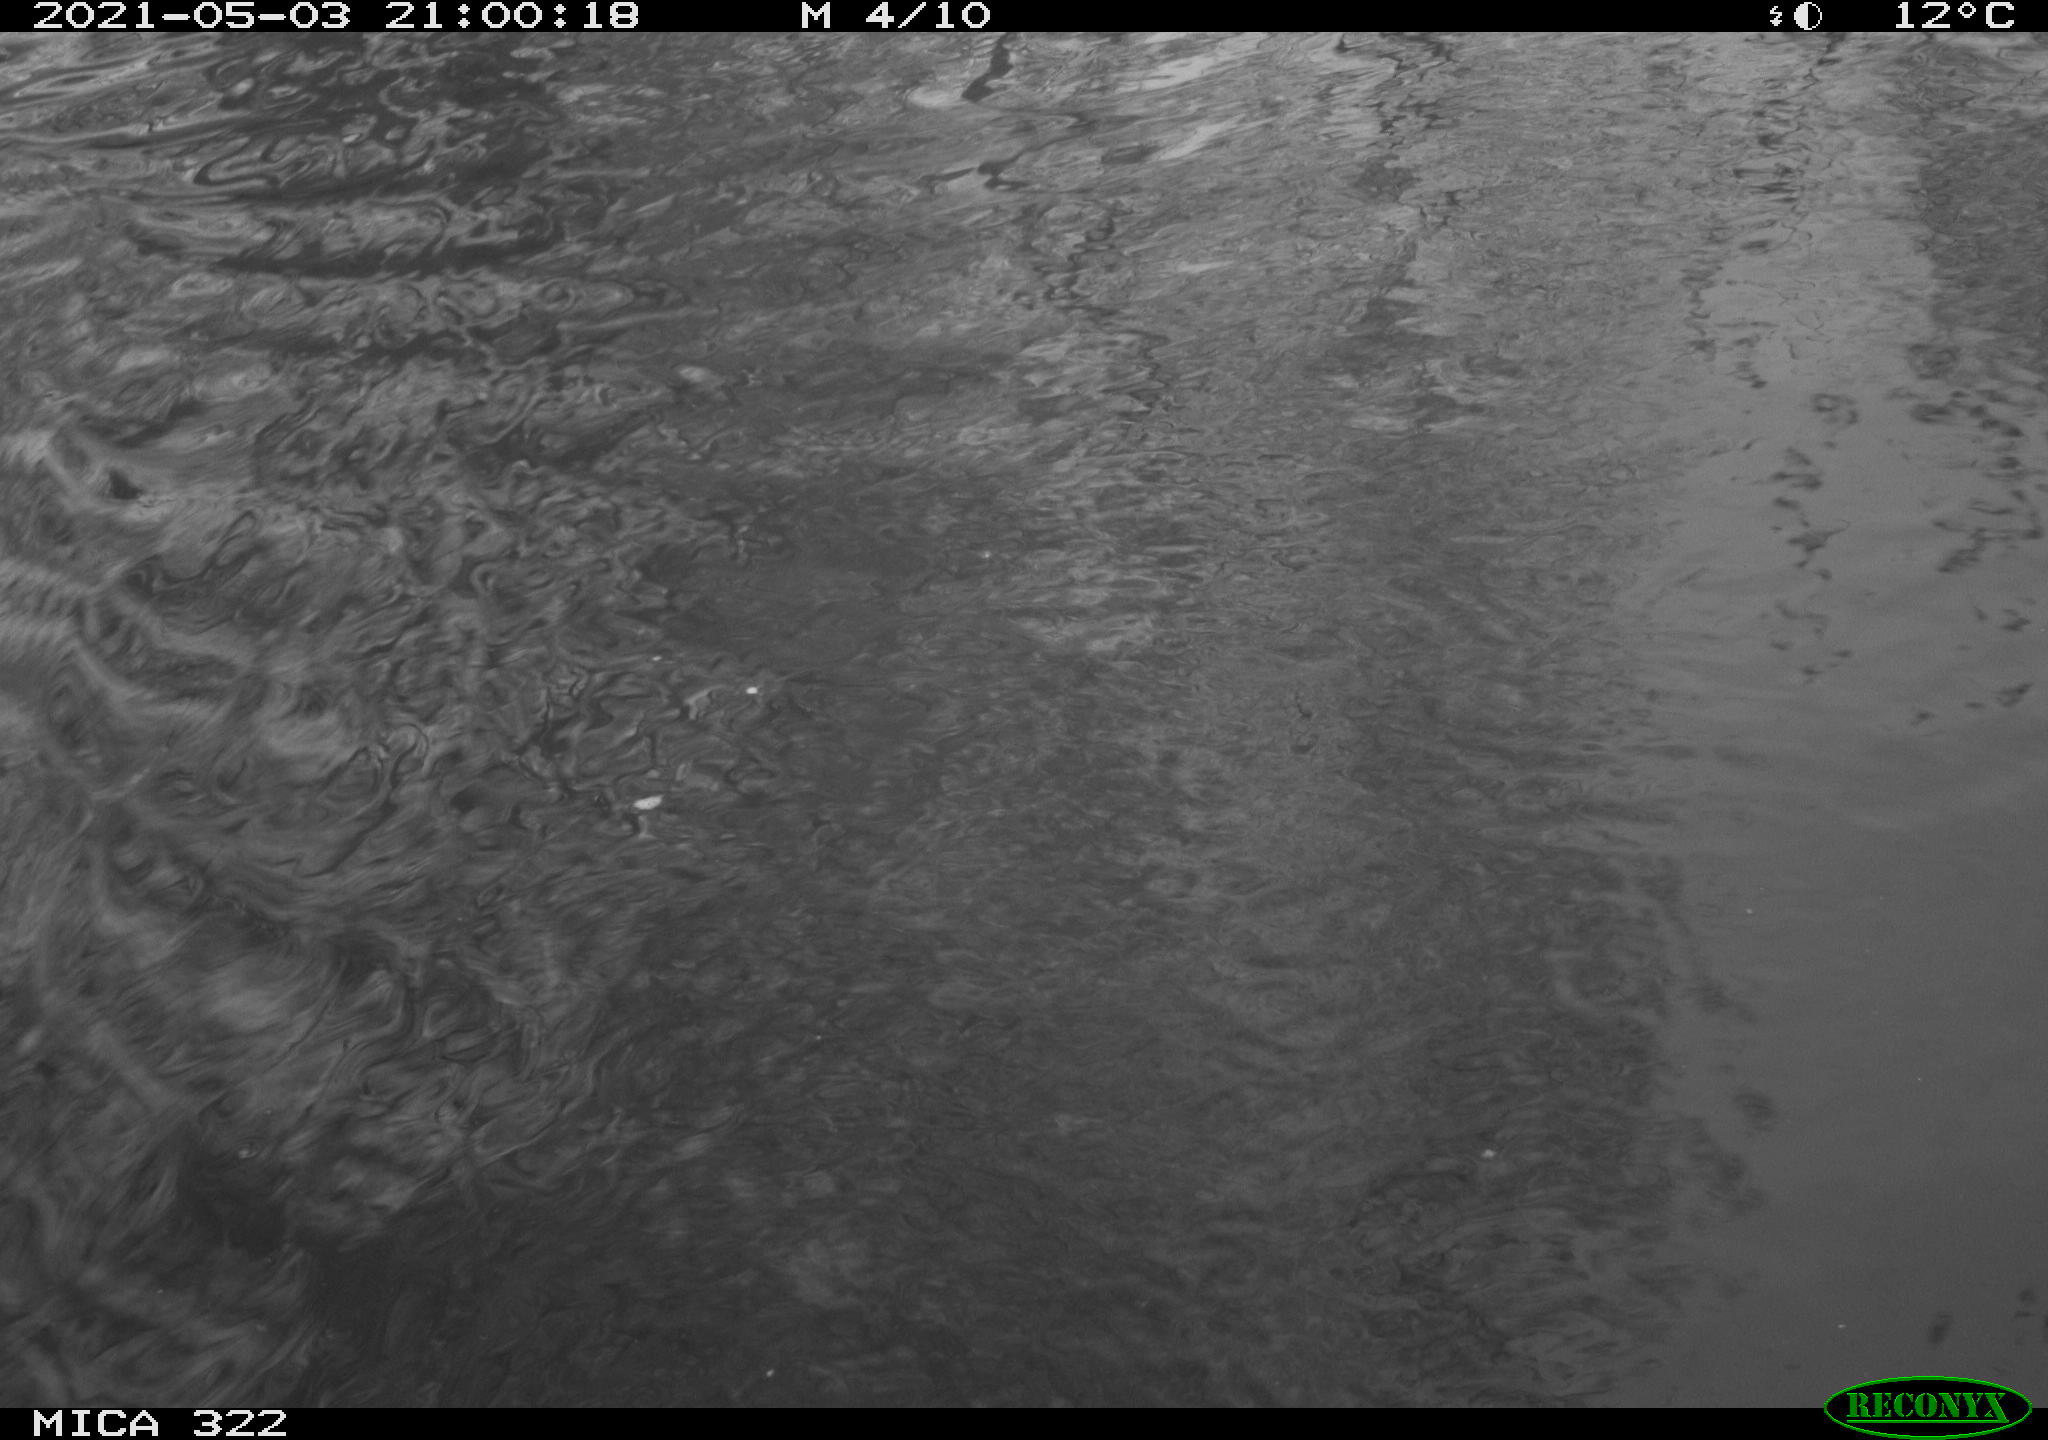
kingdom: Animalia
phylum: Chordata
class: Aves
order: Gruiformes
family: Rallidae
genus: Fulica
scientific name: Fulica atra
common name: Eurasian coot
